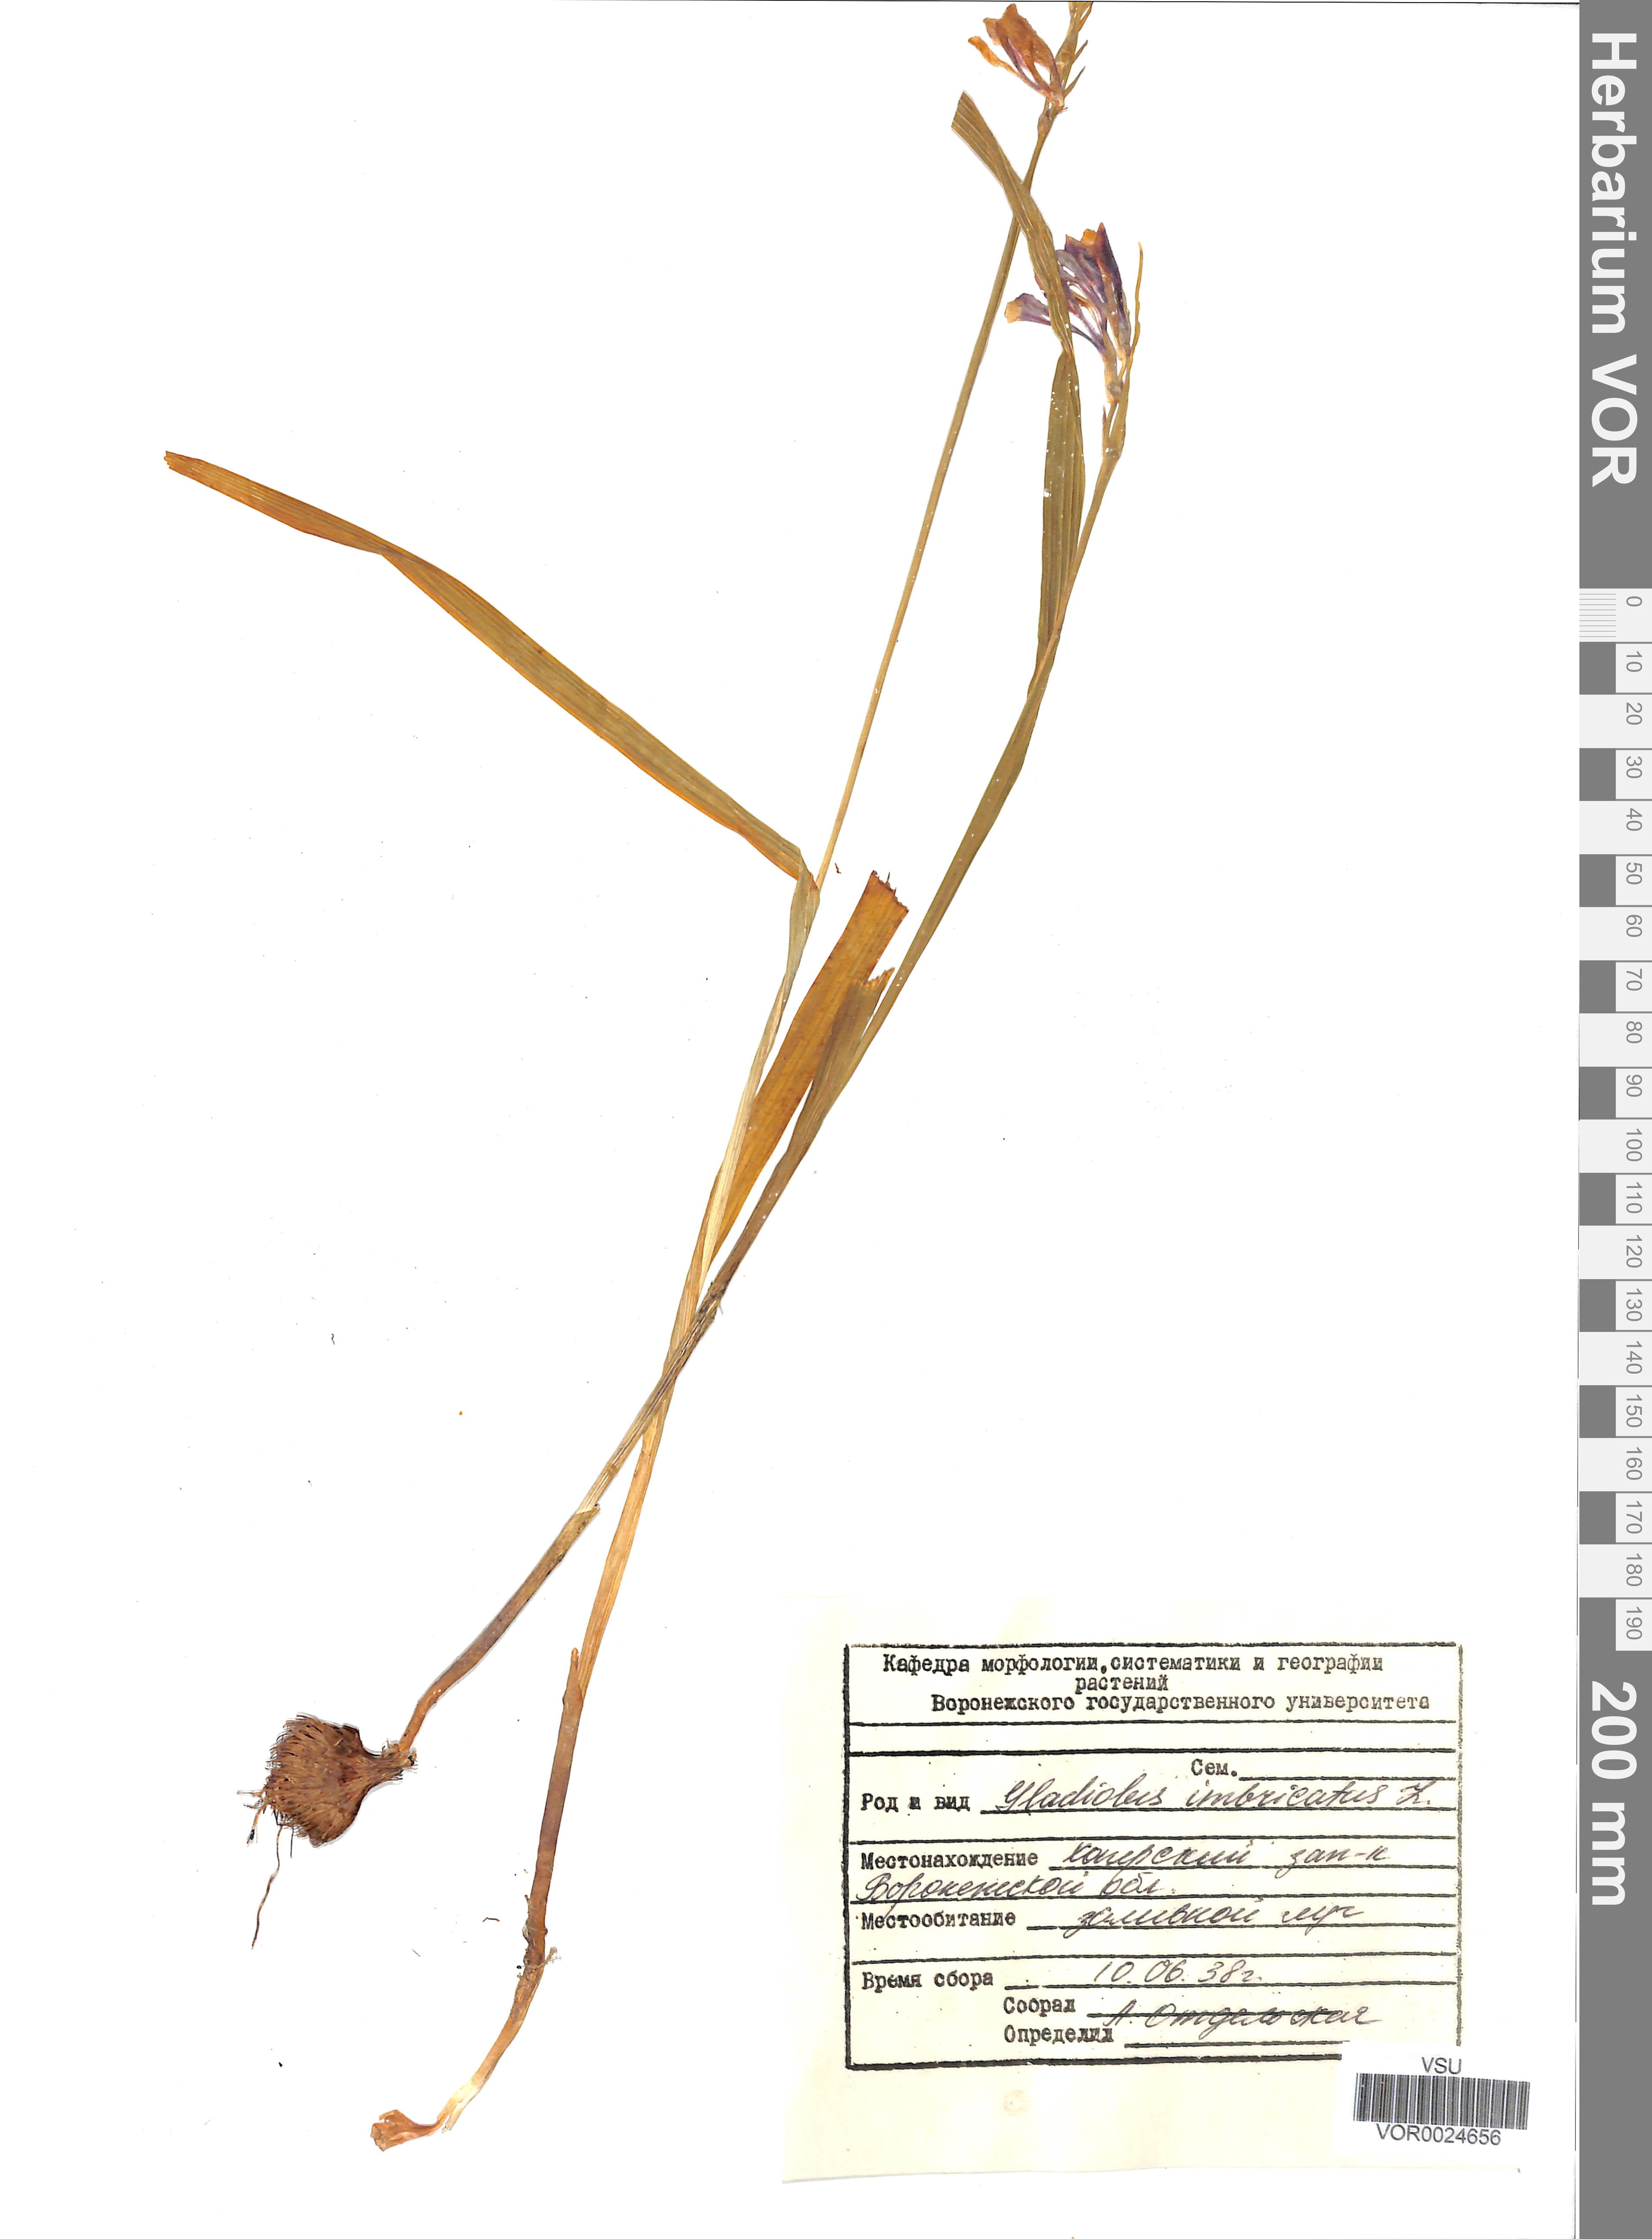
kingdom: Plantae
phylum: Tracheophyta
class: Liliopsida
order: Asparagales
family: Iridaceae
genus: Gladiolus
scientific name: Gladiolus tenuis
